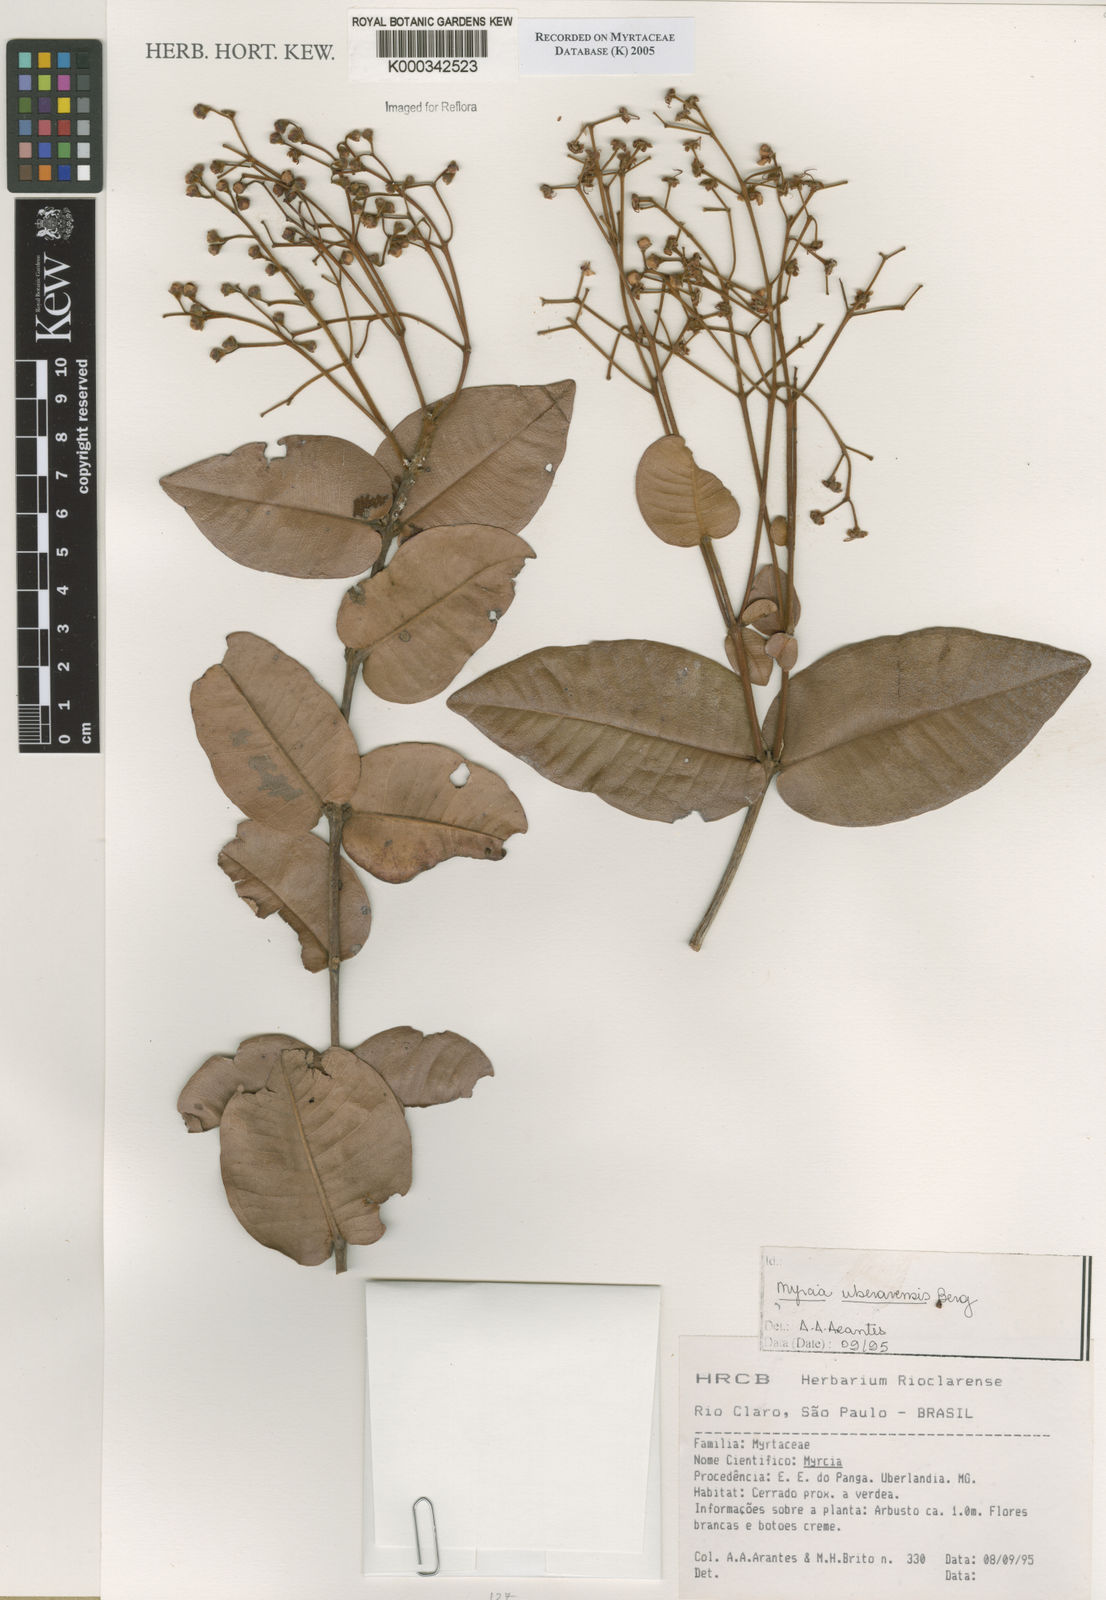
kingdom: Plantae
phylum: Tracheophyta
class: Magnoliopsida
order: Myrtales
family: Myrtaceae
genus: Myrcia
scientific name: Myrcia uberavensis
